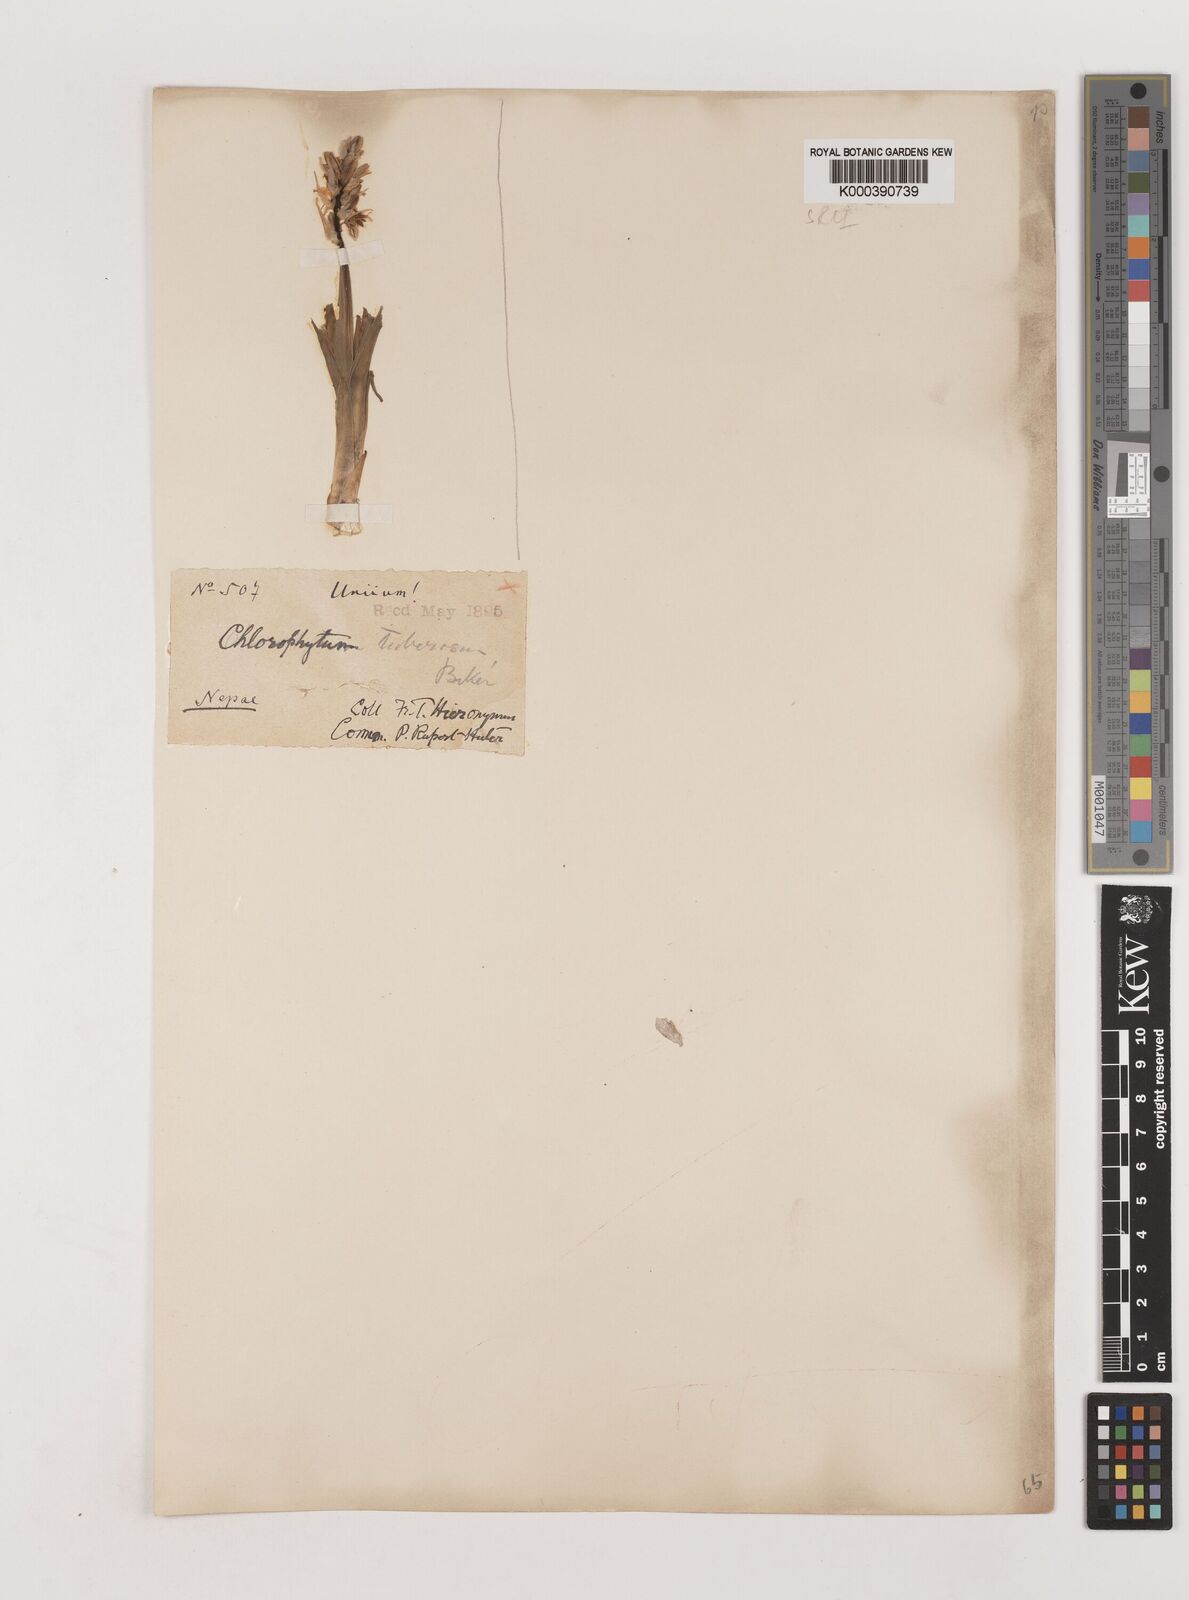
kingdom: Plantae
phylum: Tracheophyta
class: Liliopsida
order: Asparagales
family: Asparagaceae
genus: Chlorophytum
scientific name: Chlorophytum tuberosum
